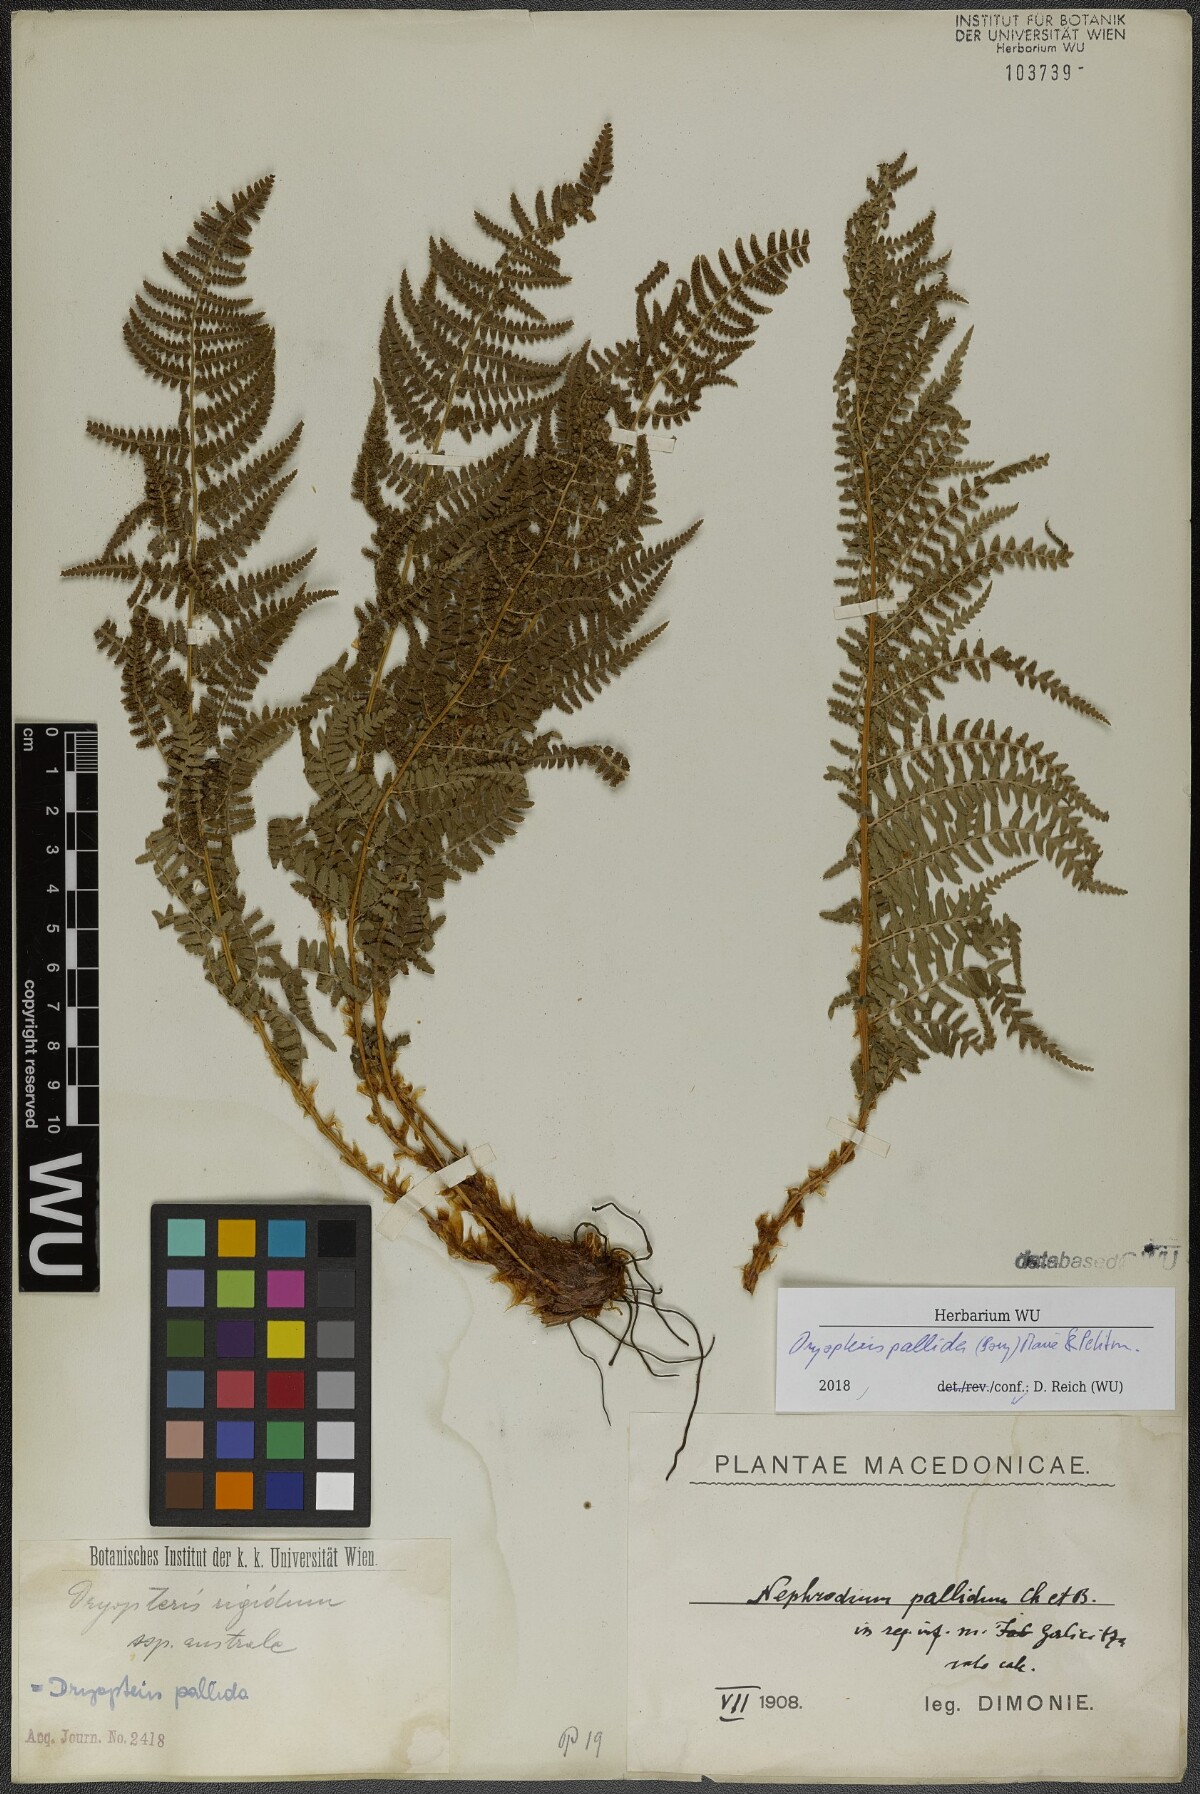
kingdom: Plantae
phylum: Tracheophyta
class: Polypodiopsida
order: Polypodiales
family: Dryopteridaceae
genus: Dryopteris
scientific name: Dryopteris pallida
